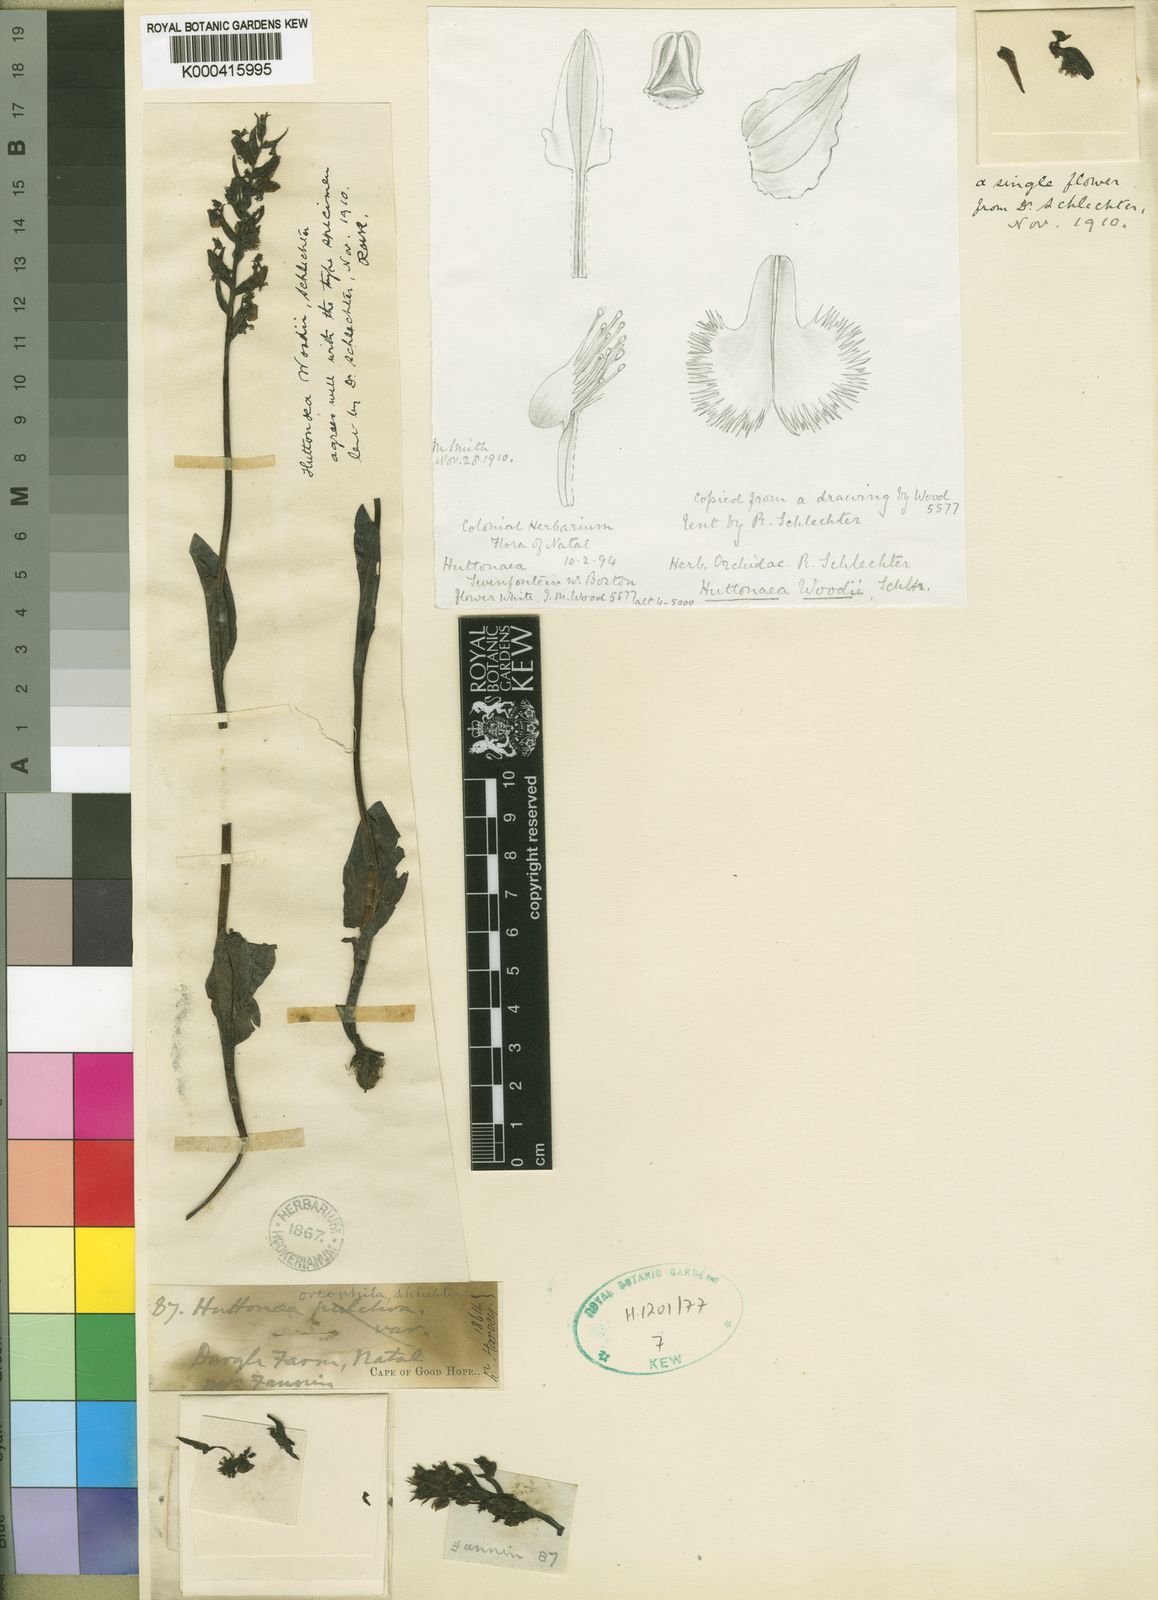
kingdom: Plantae
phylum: Tracheophyta
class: Liliopsida
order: Asparagales
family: Orchidaceae
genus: Huttonaea
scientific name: Huttonaea woodii
